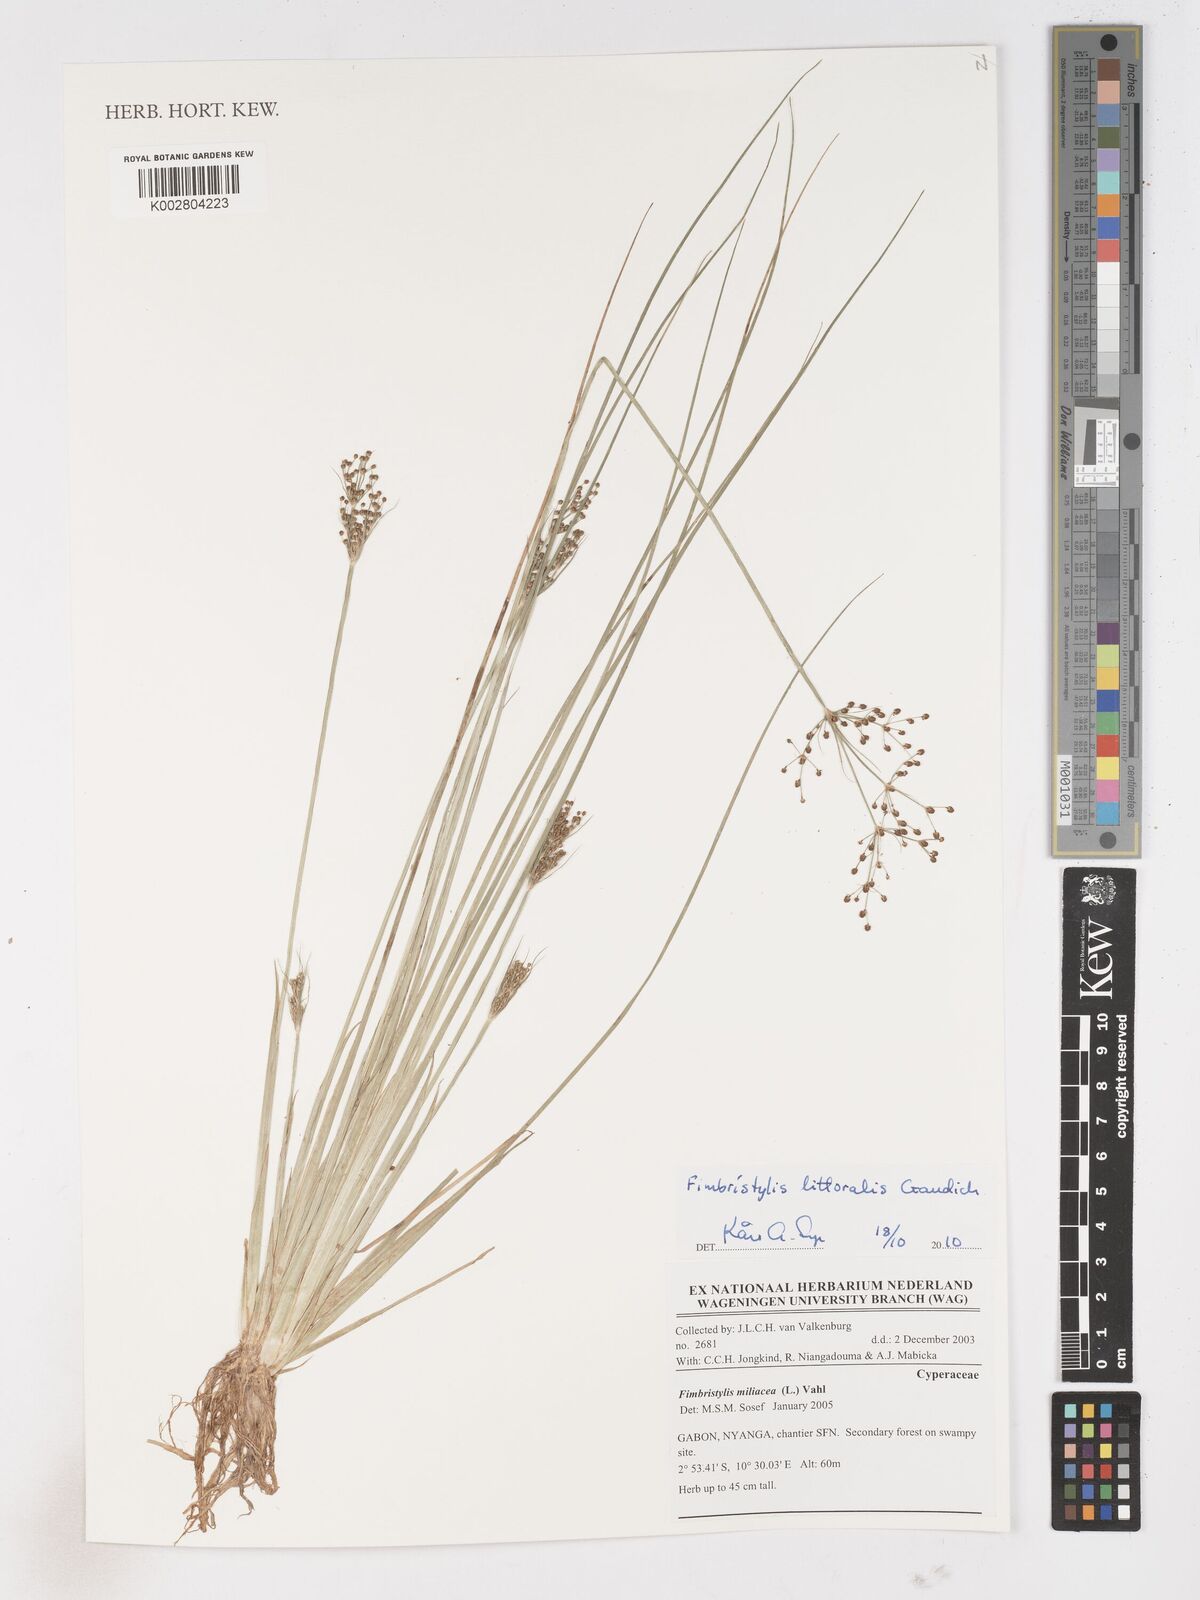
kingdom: Plantae
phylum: Tracheophyta
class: Liliopsida
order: Poales
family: Cyperaceae
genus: Fimbristylis
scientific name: Fimbristylis littoralis
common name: Fimbry
